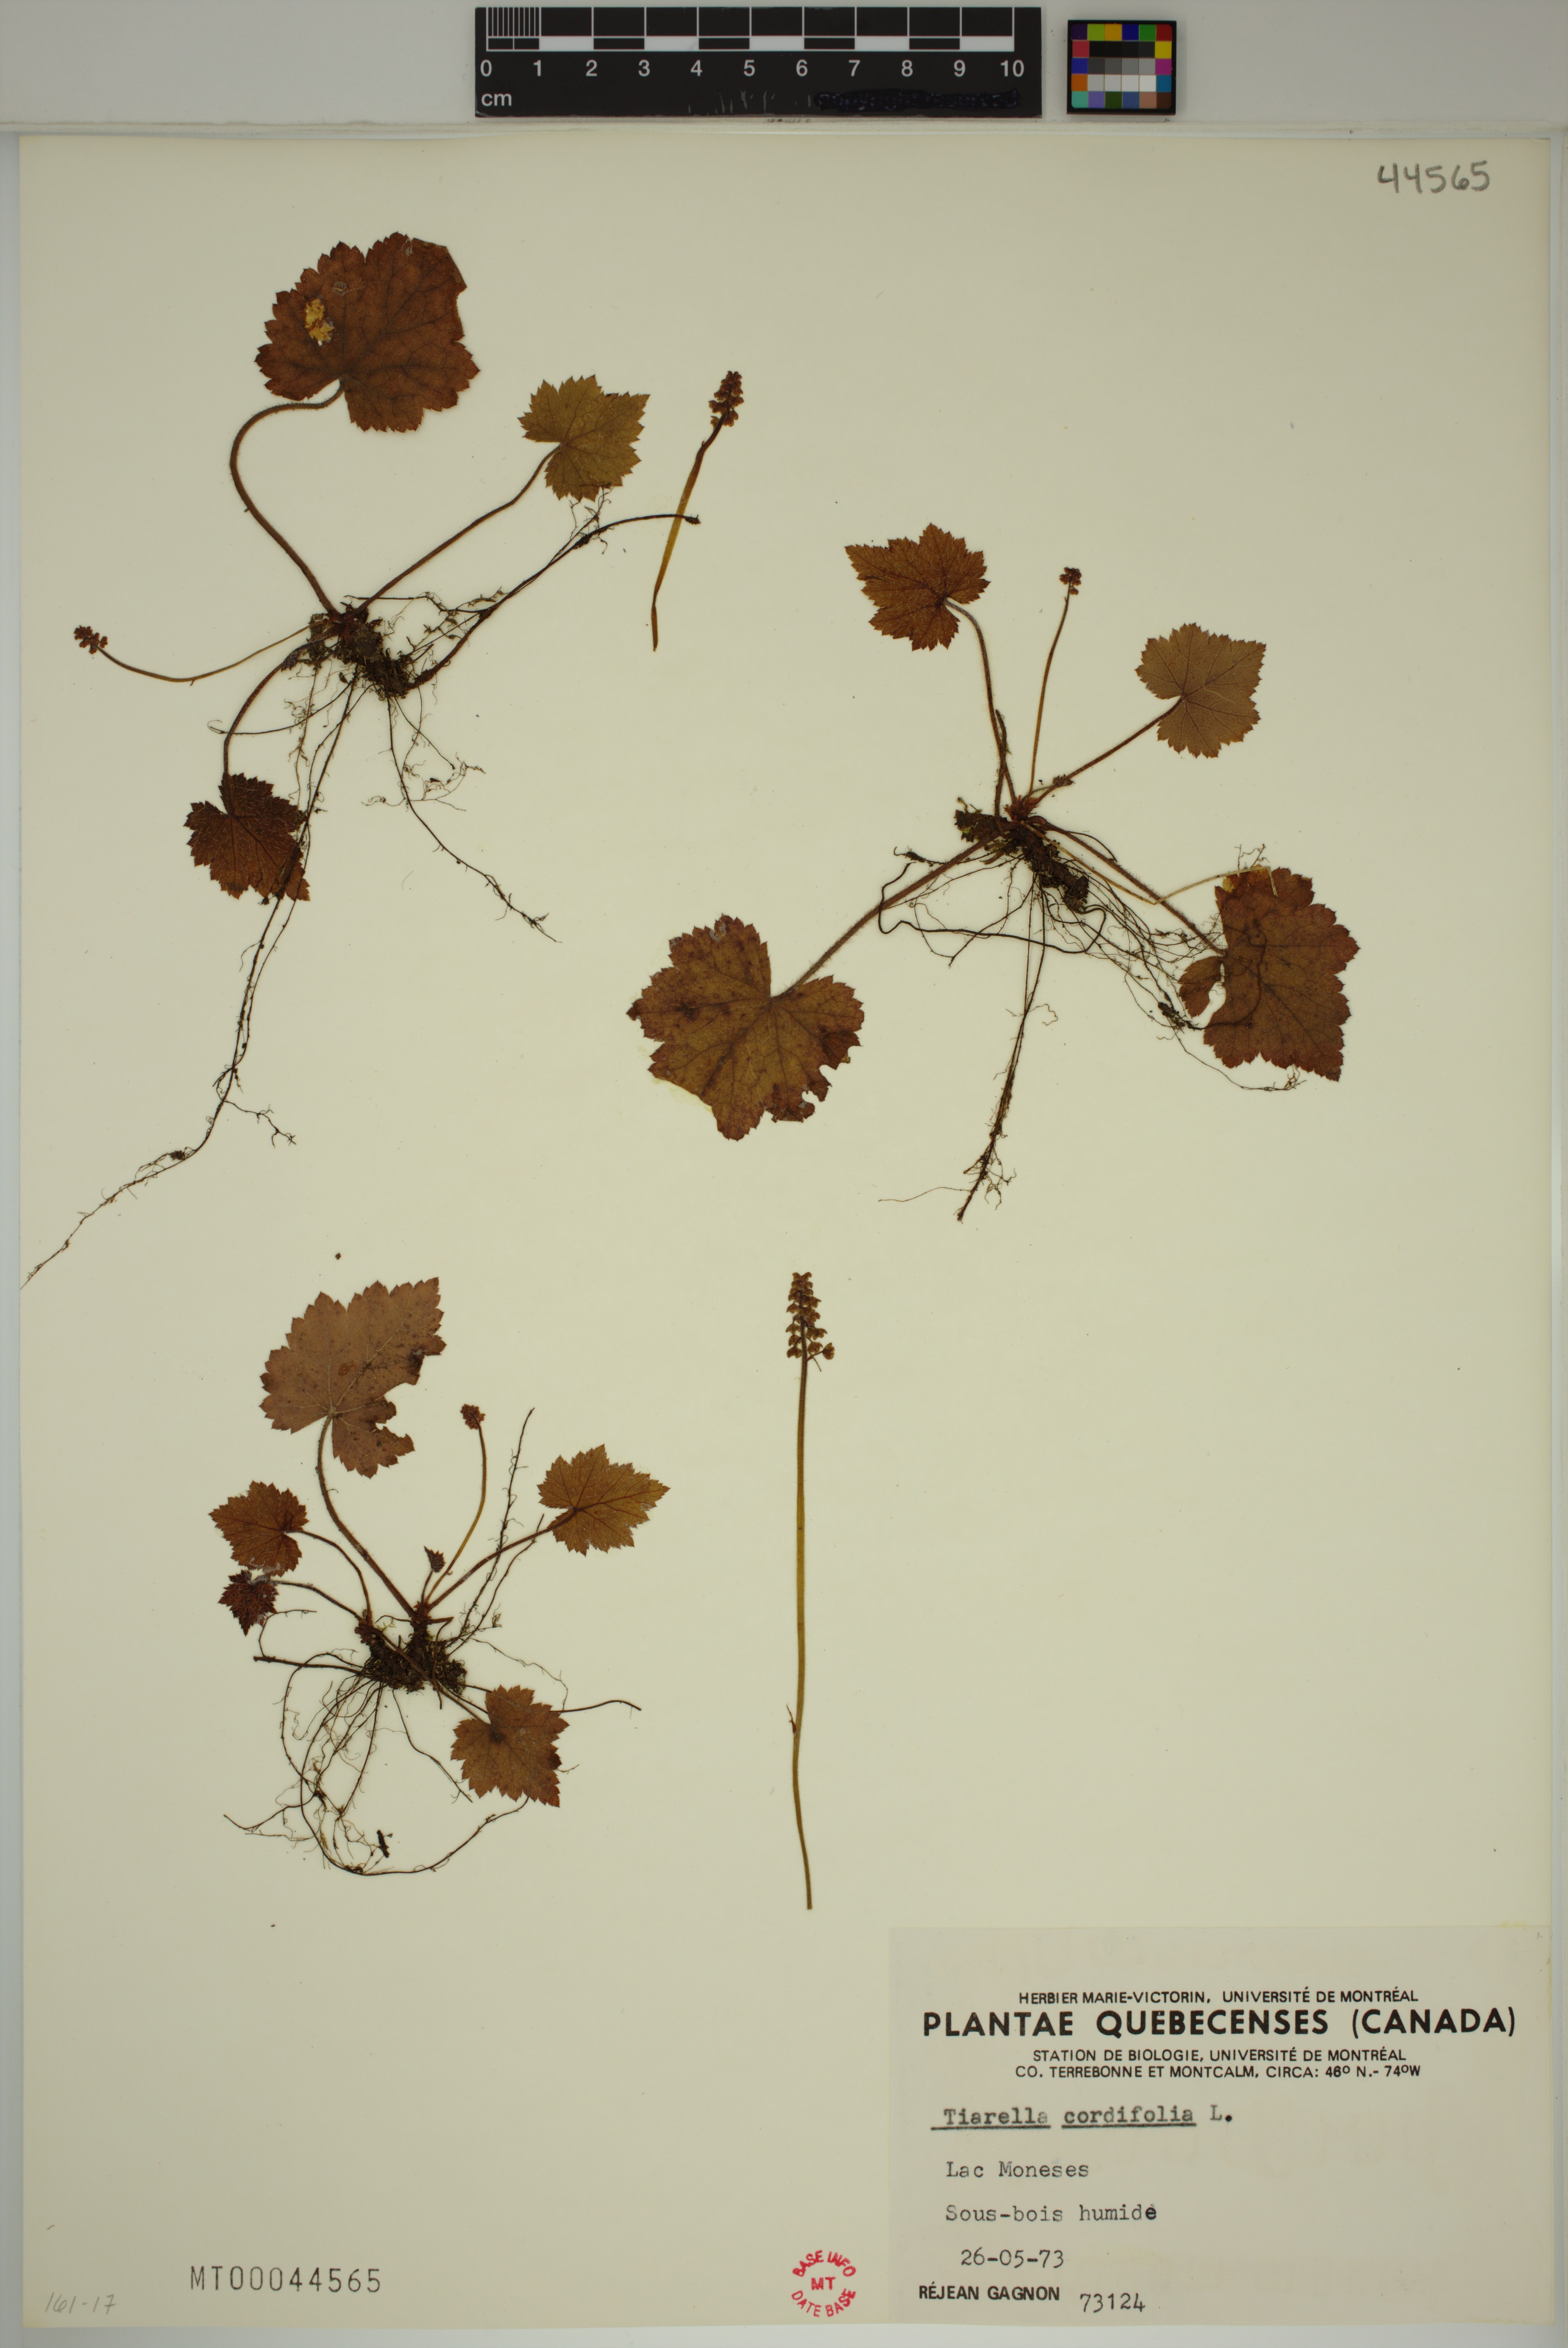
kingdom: Plantae
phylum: Tracheophyta
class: Magnoliopsida
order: Saxifragales
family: Saxifragaceae
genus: Tiarella
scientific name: Tiarella cordifolia
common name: Foamflower
